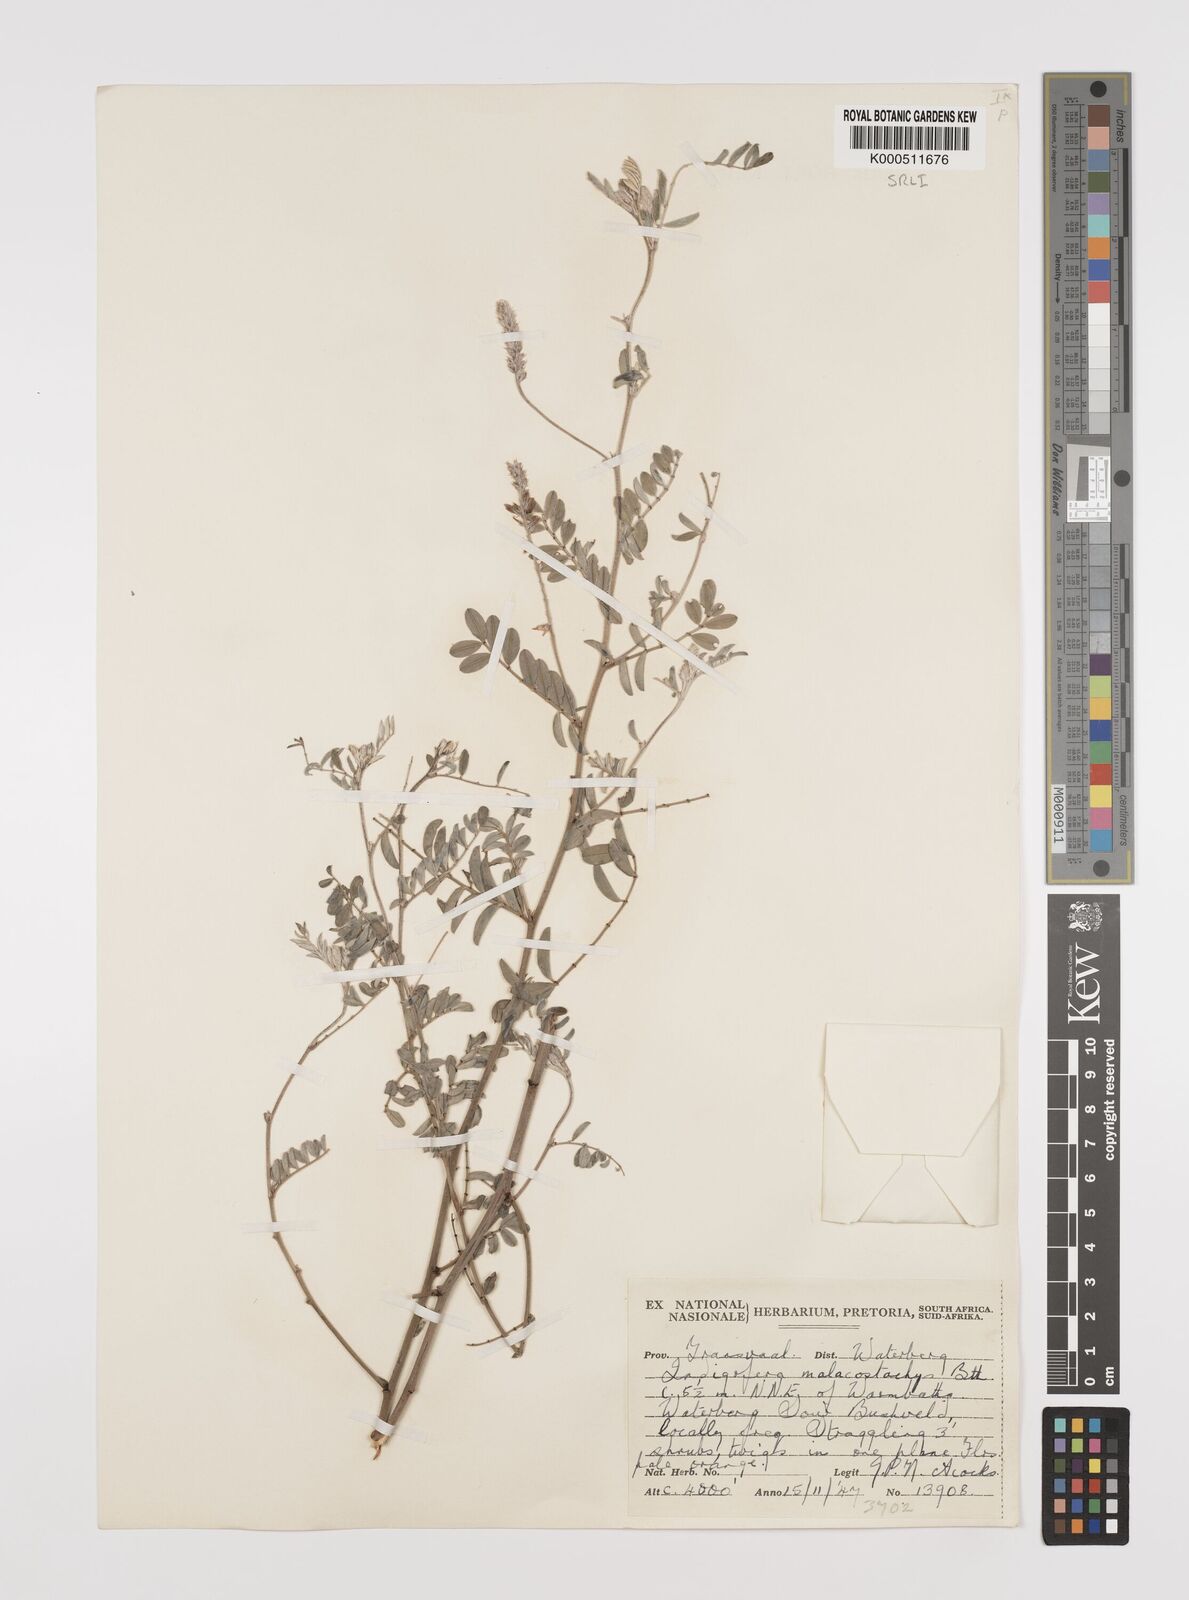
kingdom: Plantae
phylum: Tracheophyta
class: Magnoliopsida
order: Fabales
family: Fabaceae
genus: Indigofera
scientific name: Indigofera
